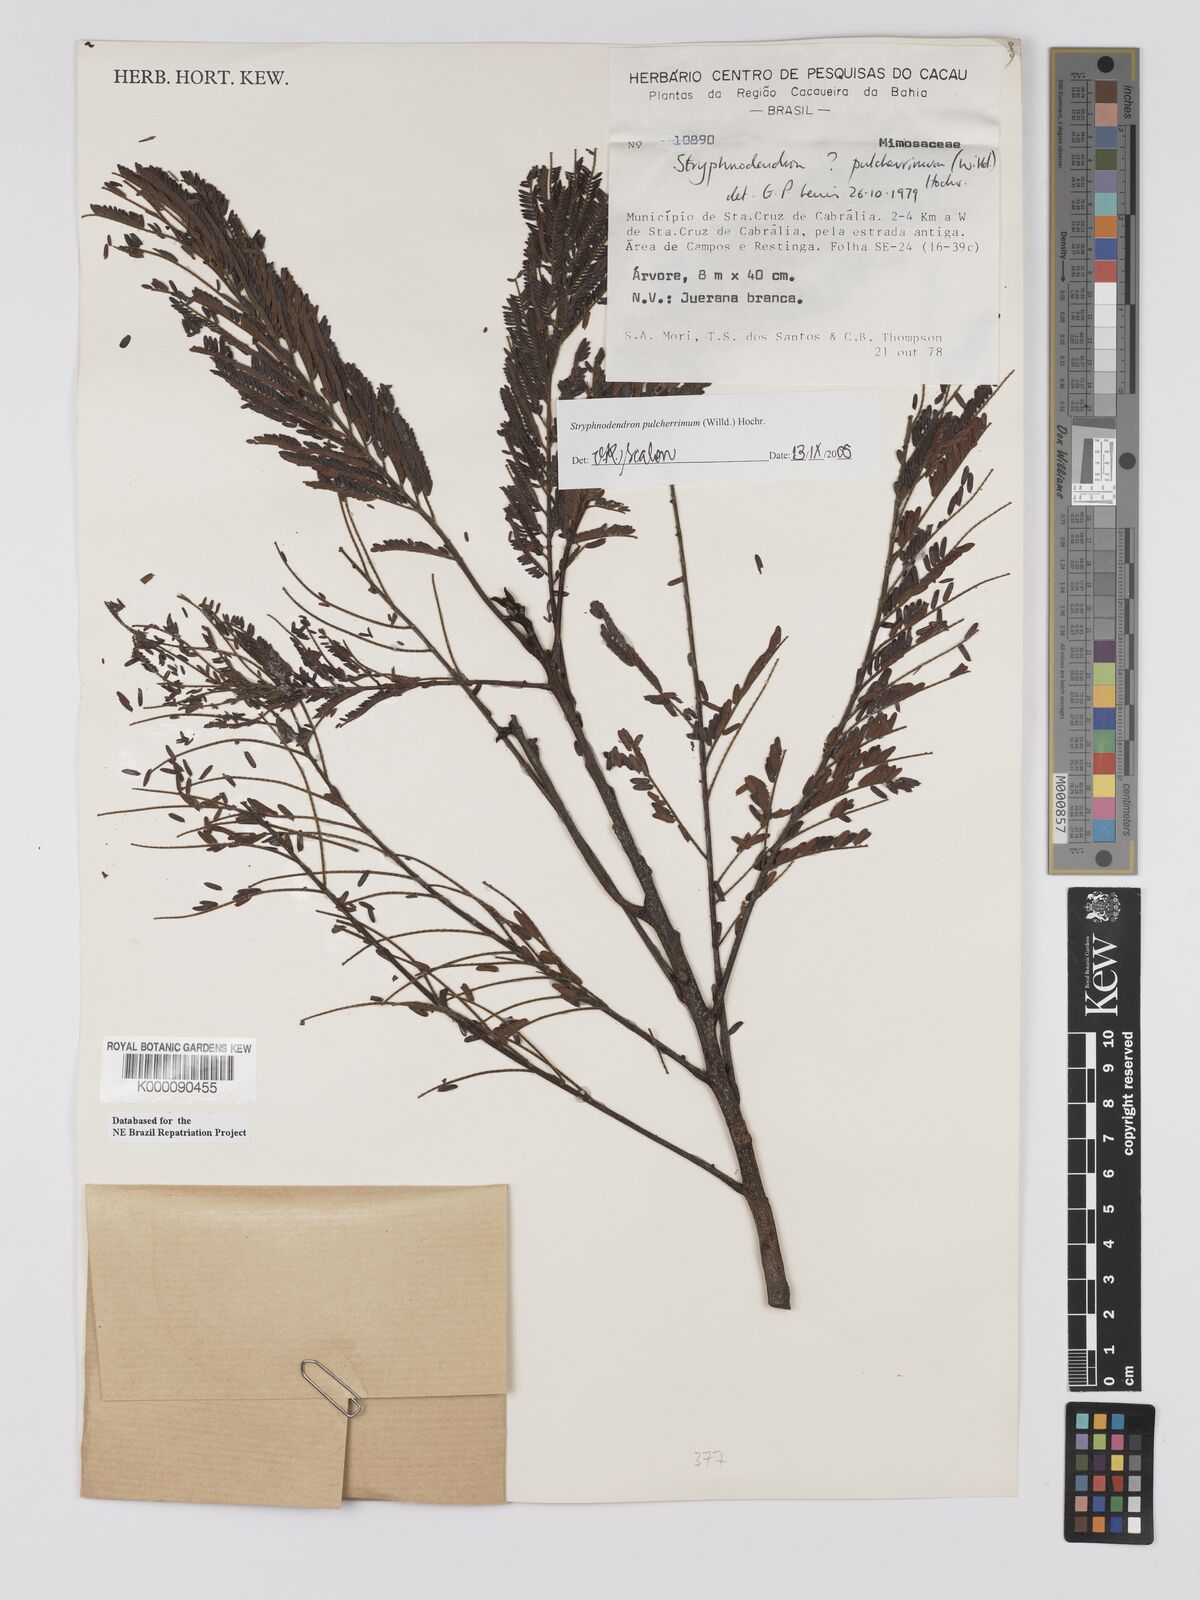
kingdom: Plantae
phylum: Tracheophyta
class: Magnoliopsida
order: Fabales
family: Fabaceae
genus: Stryphnodendron
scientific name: Stryphnodendron pulcherrimum
